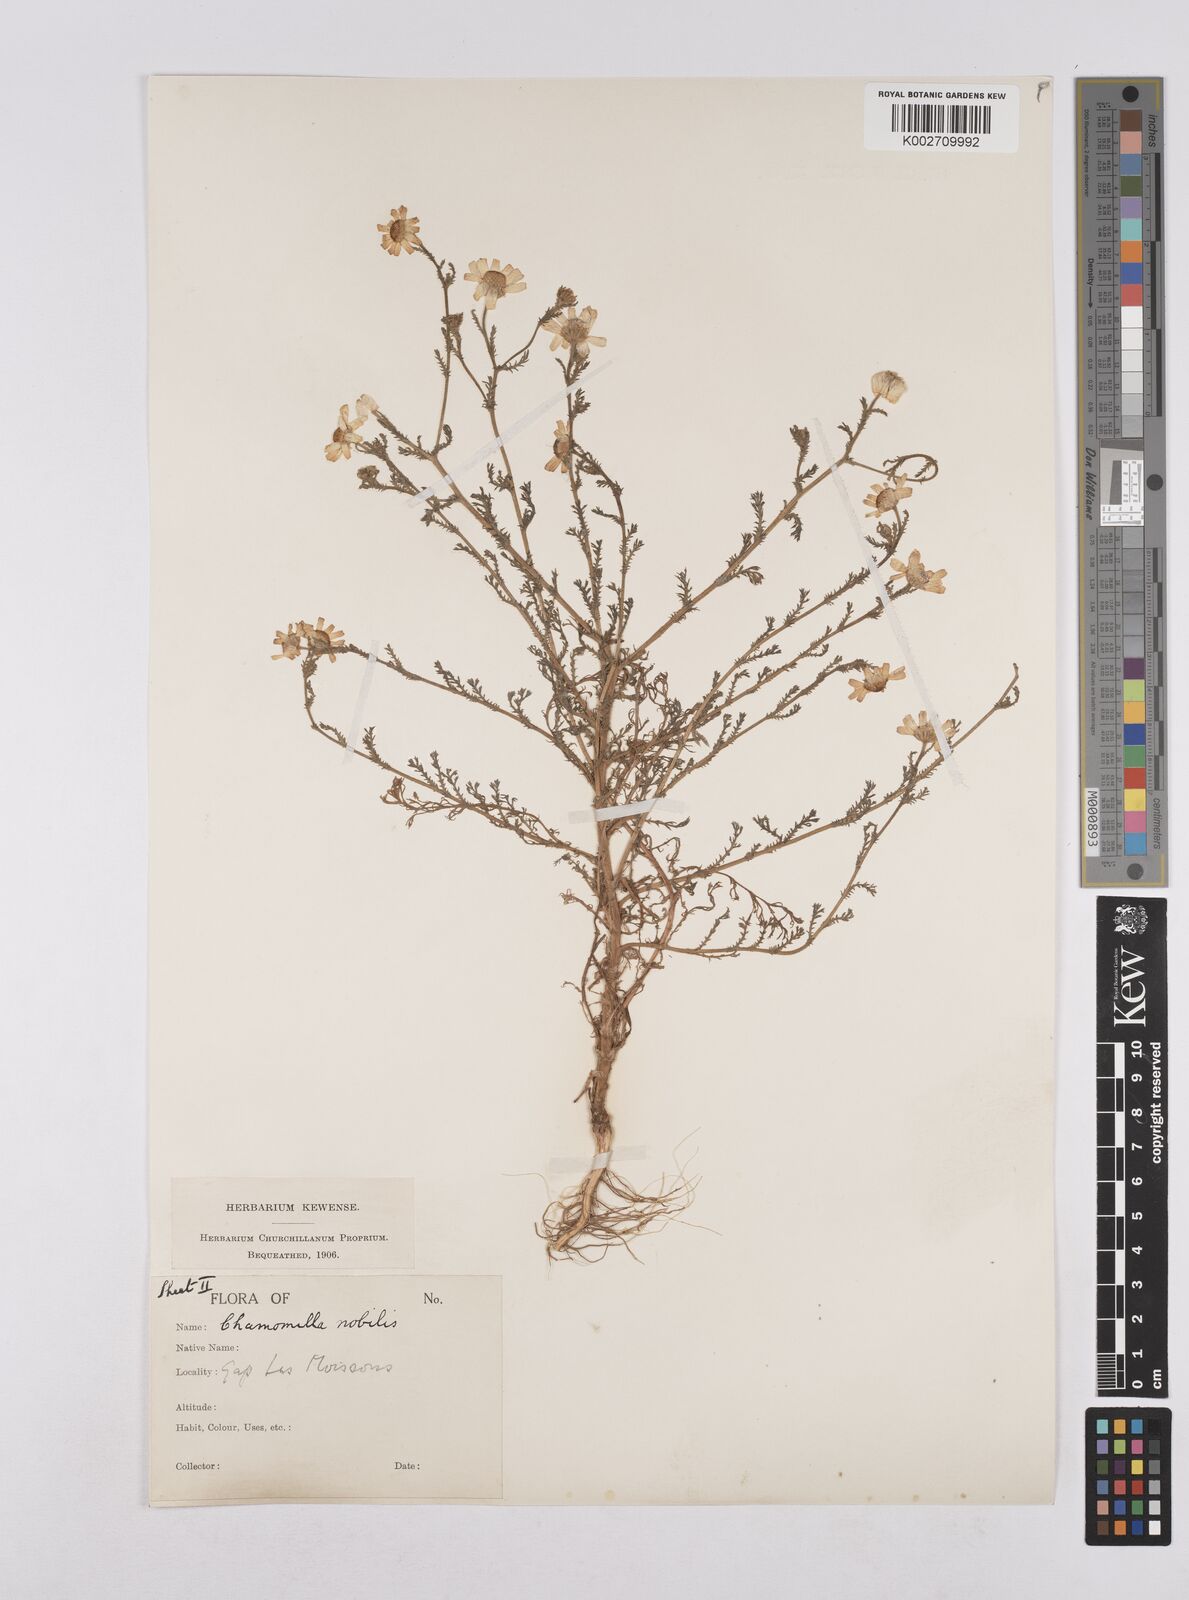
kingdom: Plantae
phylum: Tracheophyta
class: Magnoliopsida
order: Asterales
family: Asteraceae
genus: Chamaemelum
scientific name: Chamaemelum nobile
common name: Roman chamomile
